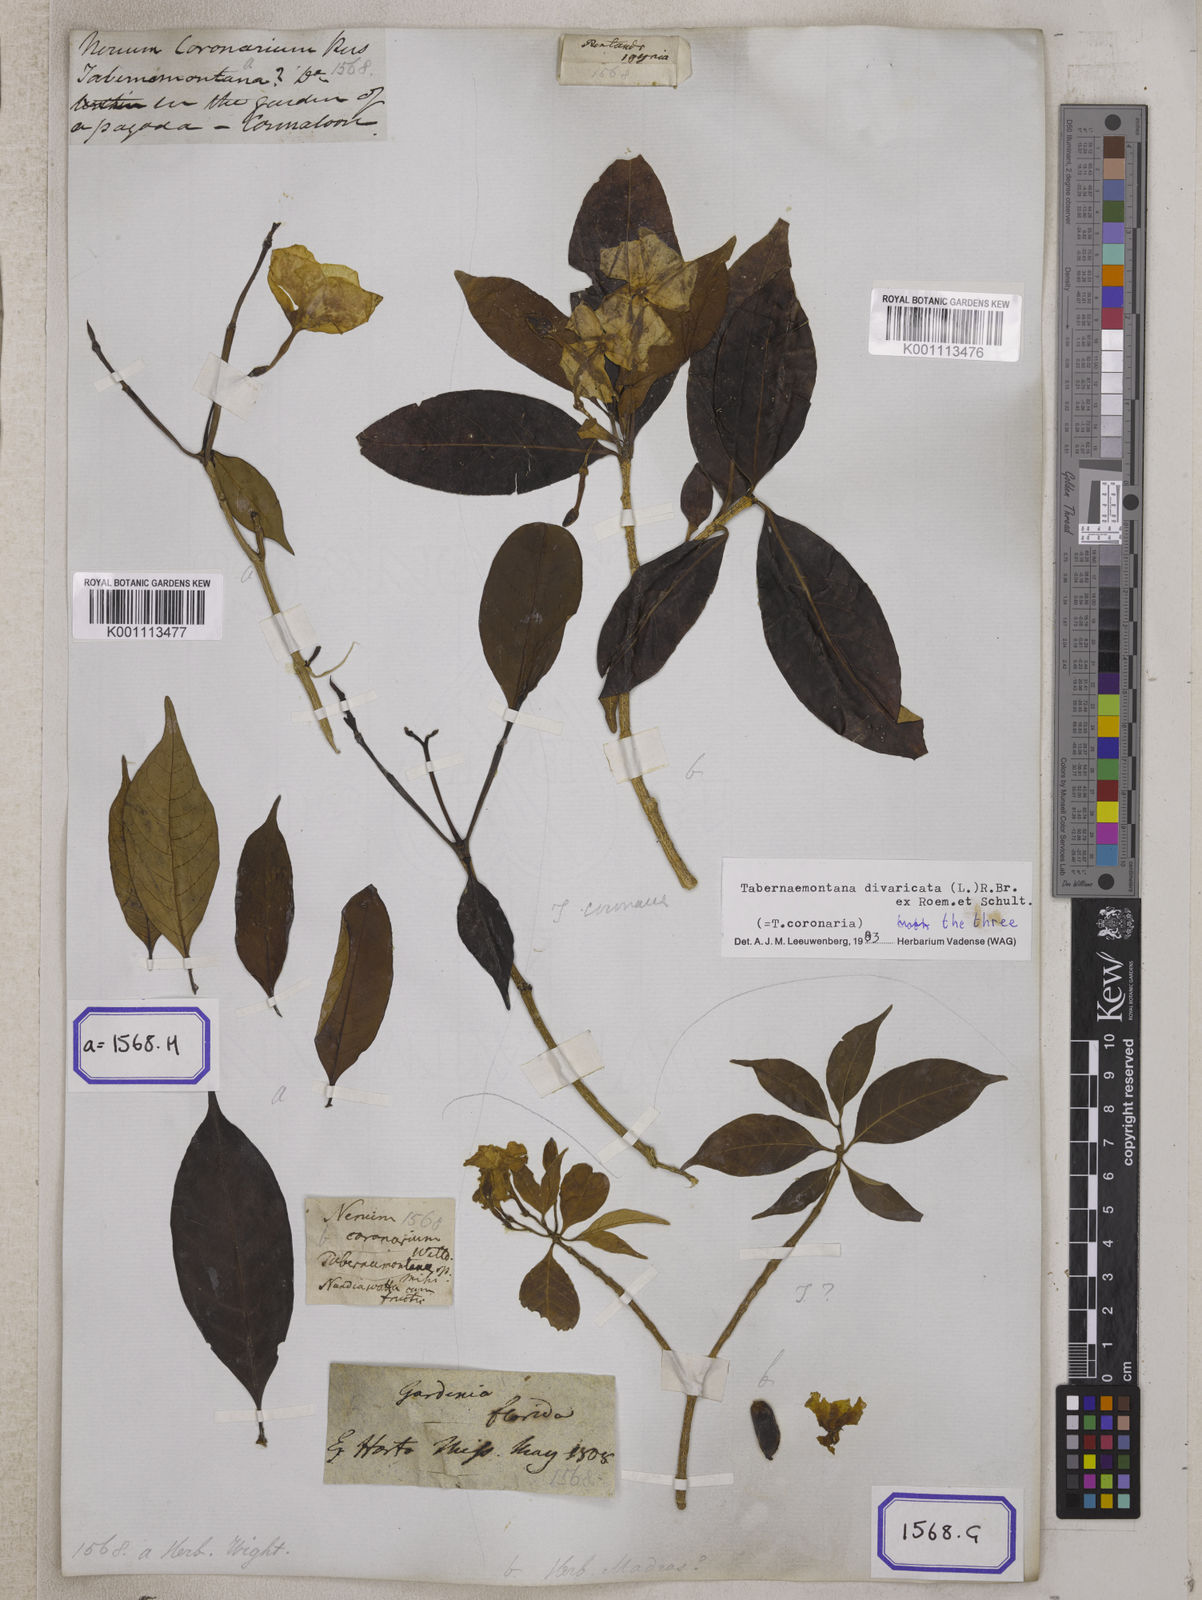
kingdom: Plantae
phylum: Tracheophyta
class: Magnoliopsida
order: Gentianales
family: Apocynaceae
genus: Tabernaemontana
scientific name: Tabernaemontana divaricata
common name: Pinwheelflower
